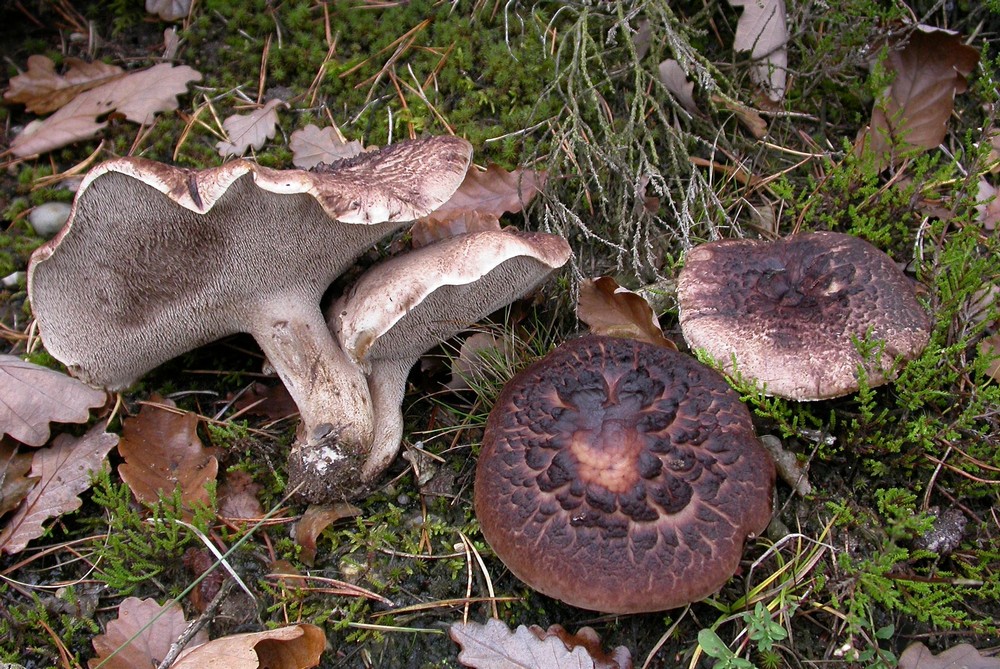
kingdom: Fungi
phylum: Basidiomycota
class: Agaricomycetes
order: Thelephorales
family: Bankeraceae
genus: Sarcodon
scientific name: Sarcodon squamosus
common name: småskællet kødpigsvamp
